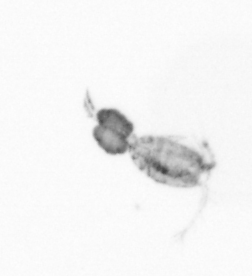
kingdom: Animalia
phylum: Arthropoda
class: Copepoda
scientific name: Copepoda
